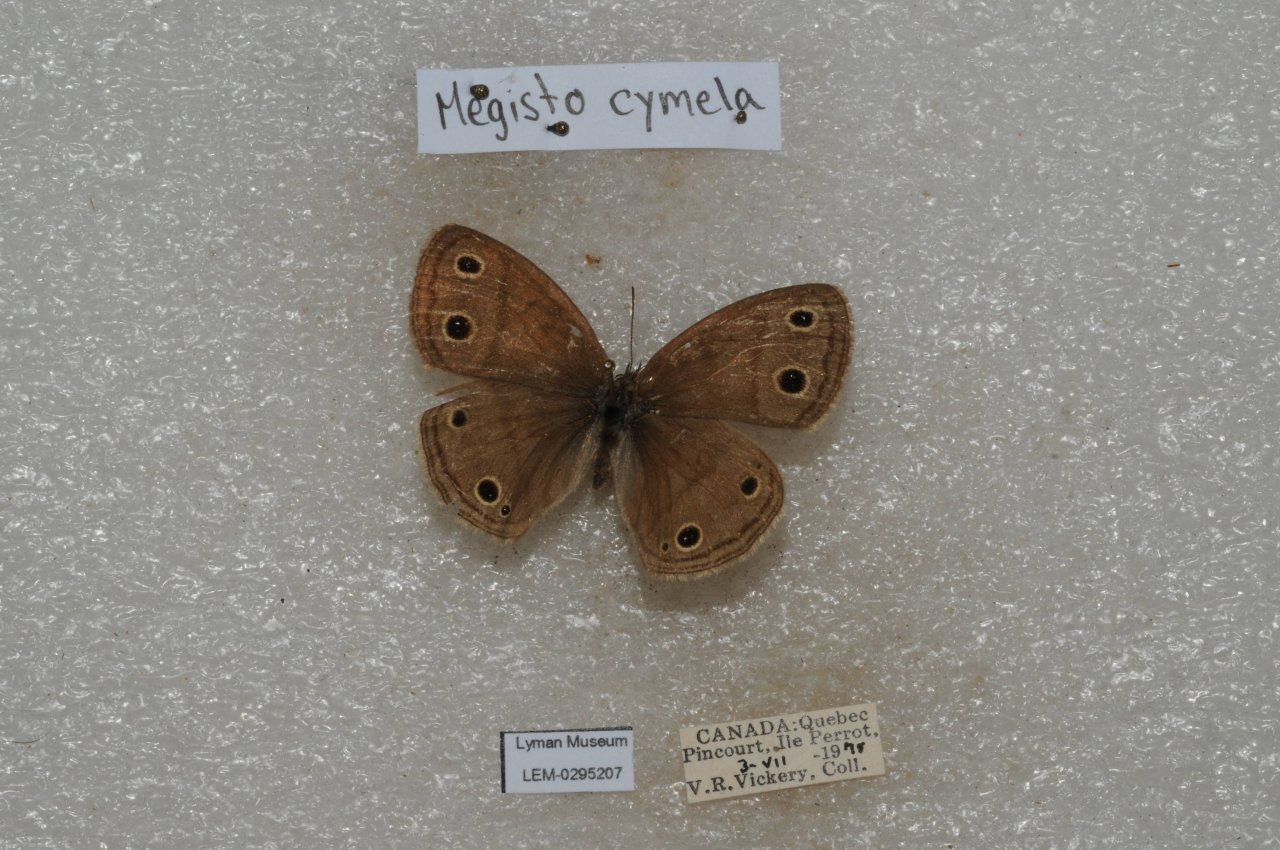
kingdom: Animalia
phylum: Arthropoda
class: Insecta
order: Lepidoptera
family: Nymphalidae
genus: Euptychia
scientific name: Euptychia cymela
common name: Little Wood Satyr
